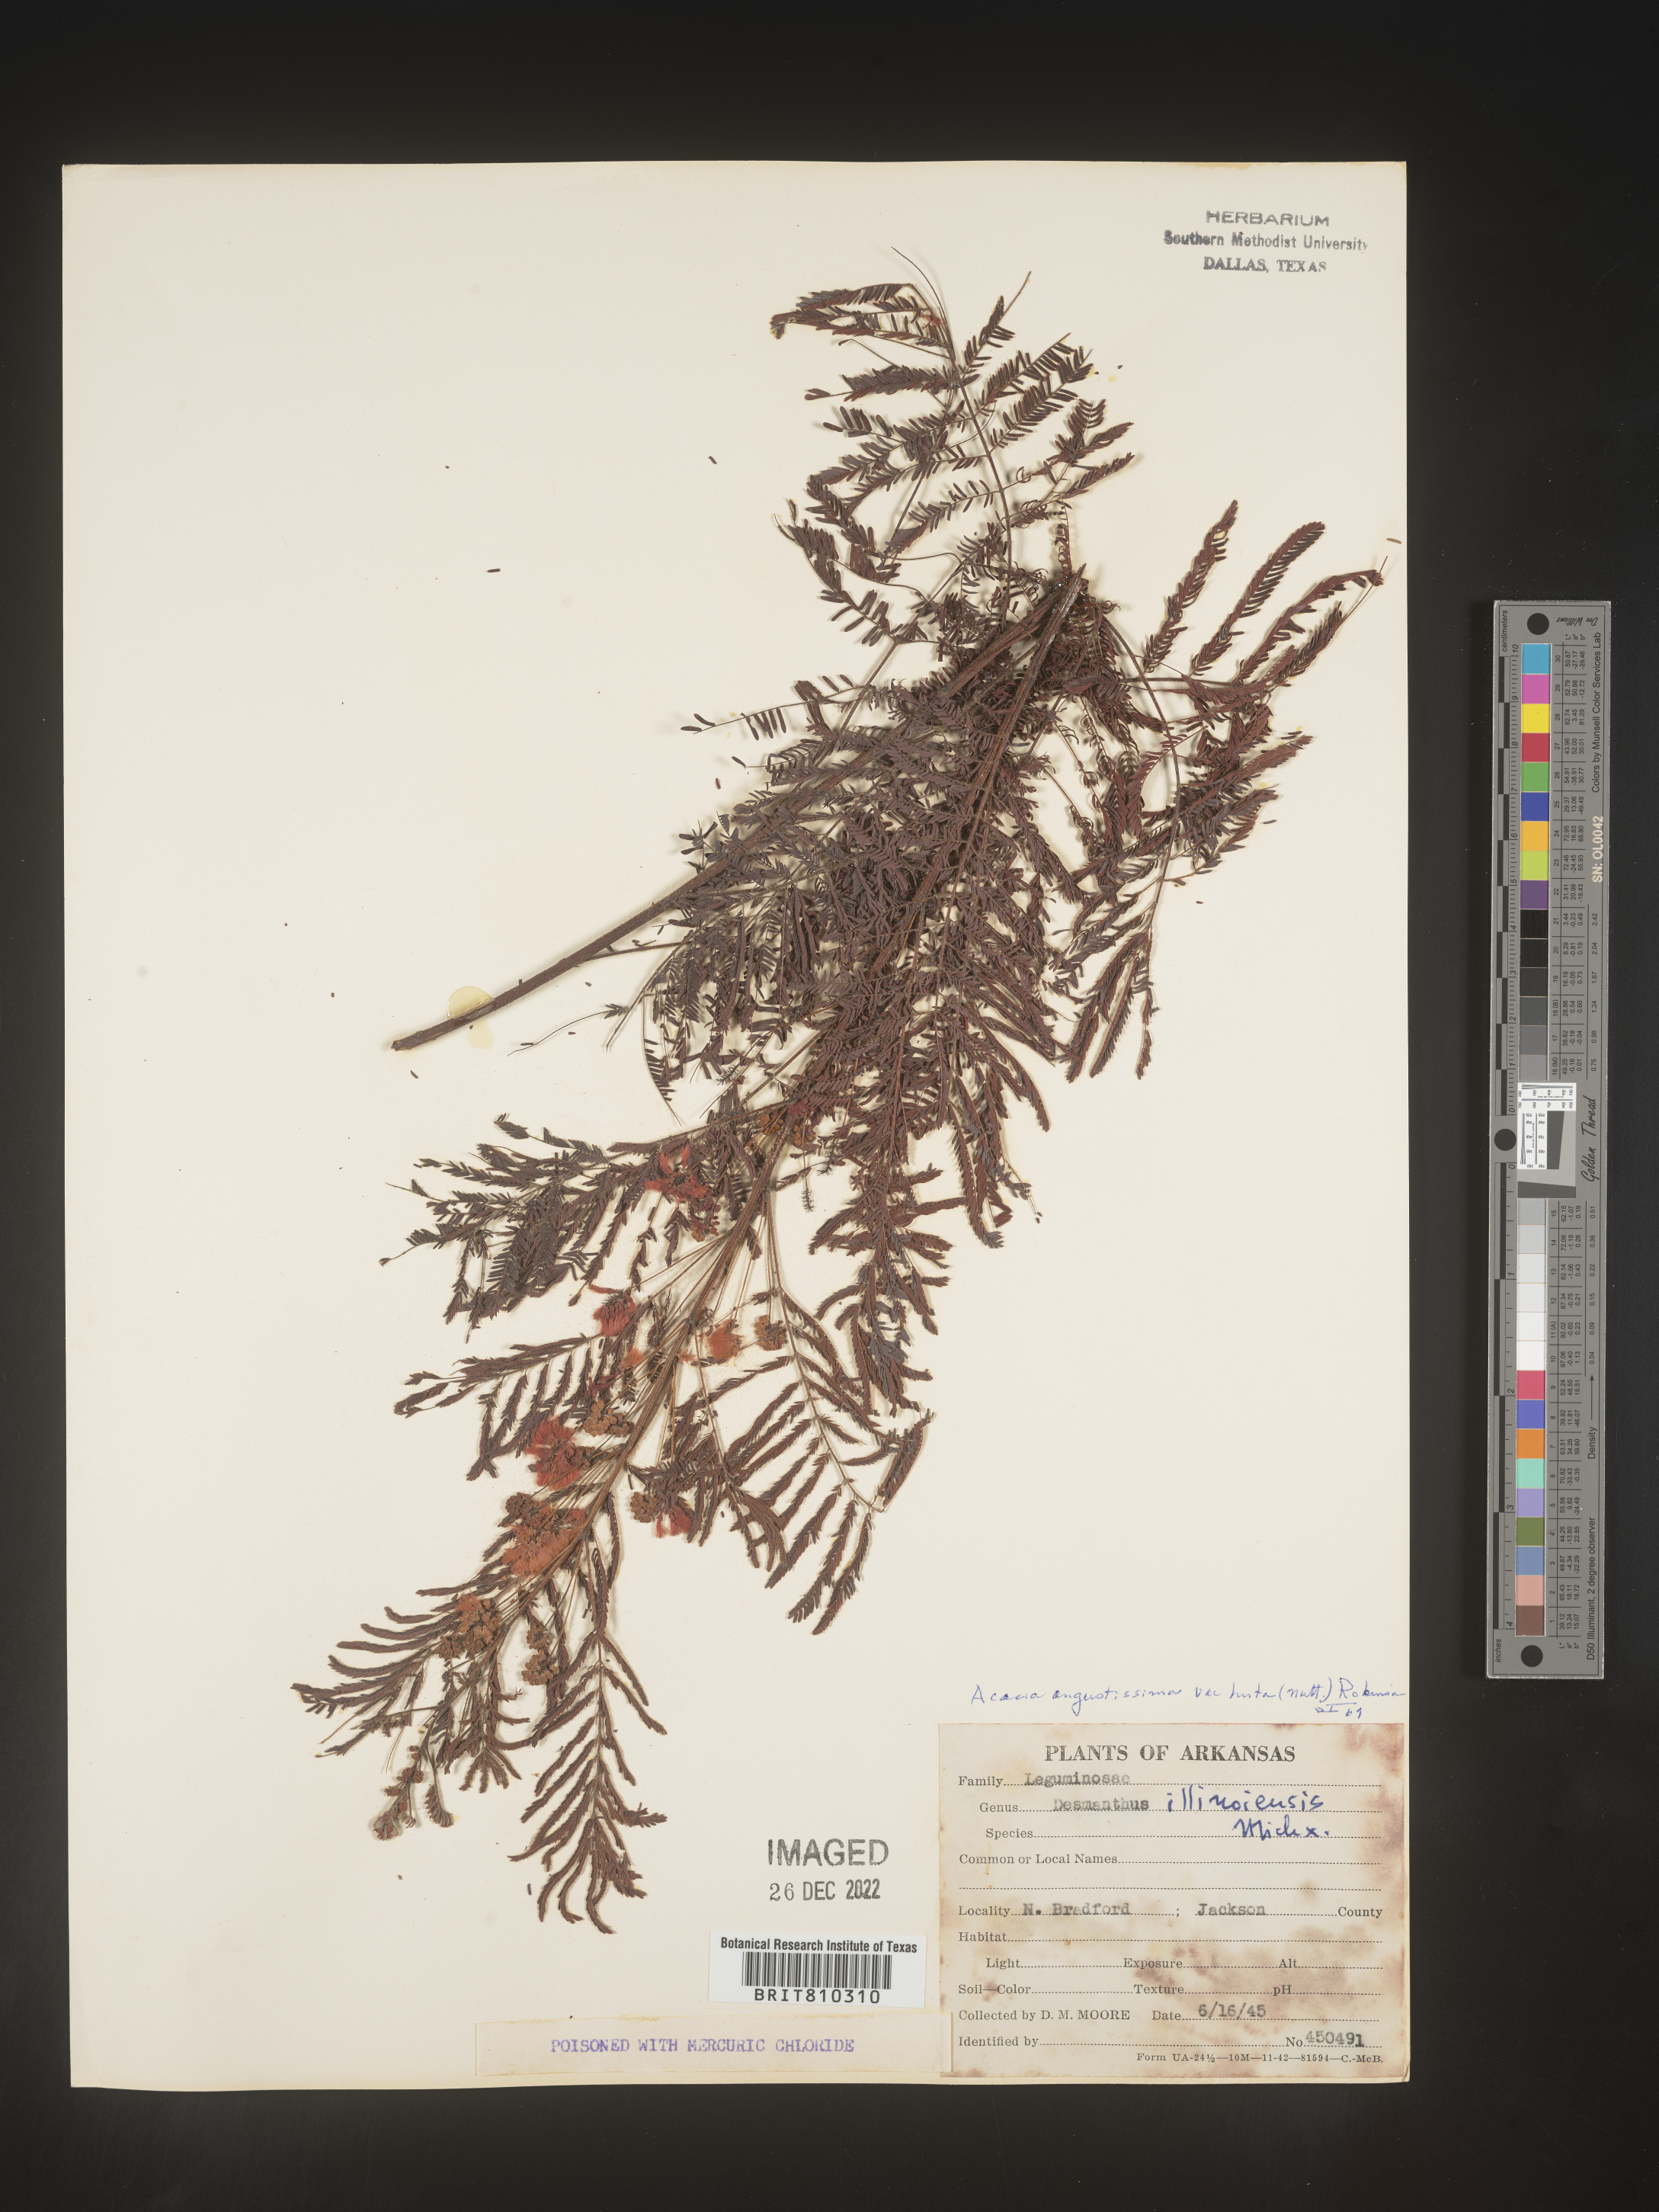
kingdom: Plantae
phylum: Tracheophyta
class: Magnoliopsida
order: Fabales
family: Fabaceae
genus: Acaciella
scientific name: Acaciella angustissima
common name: Prairie acacia
